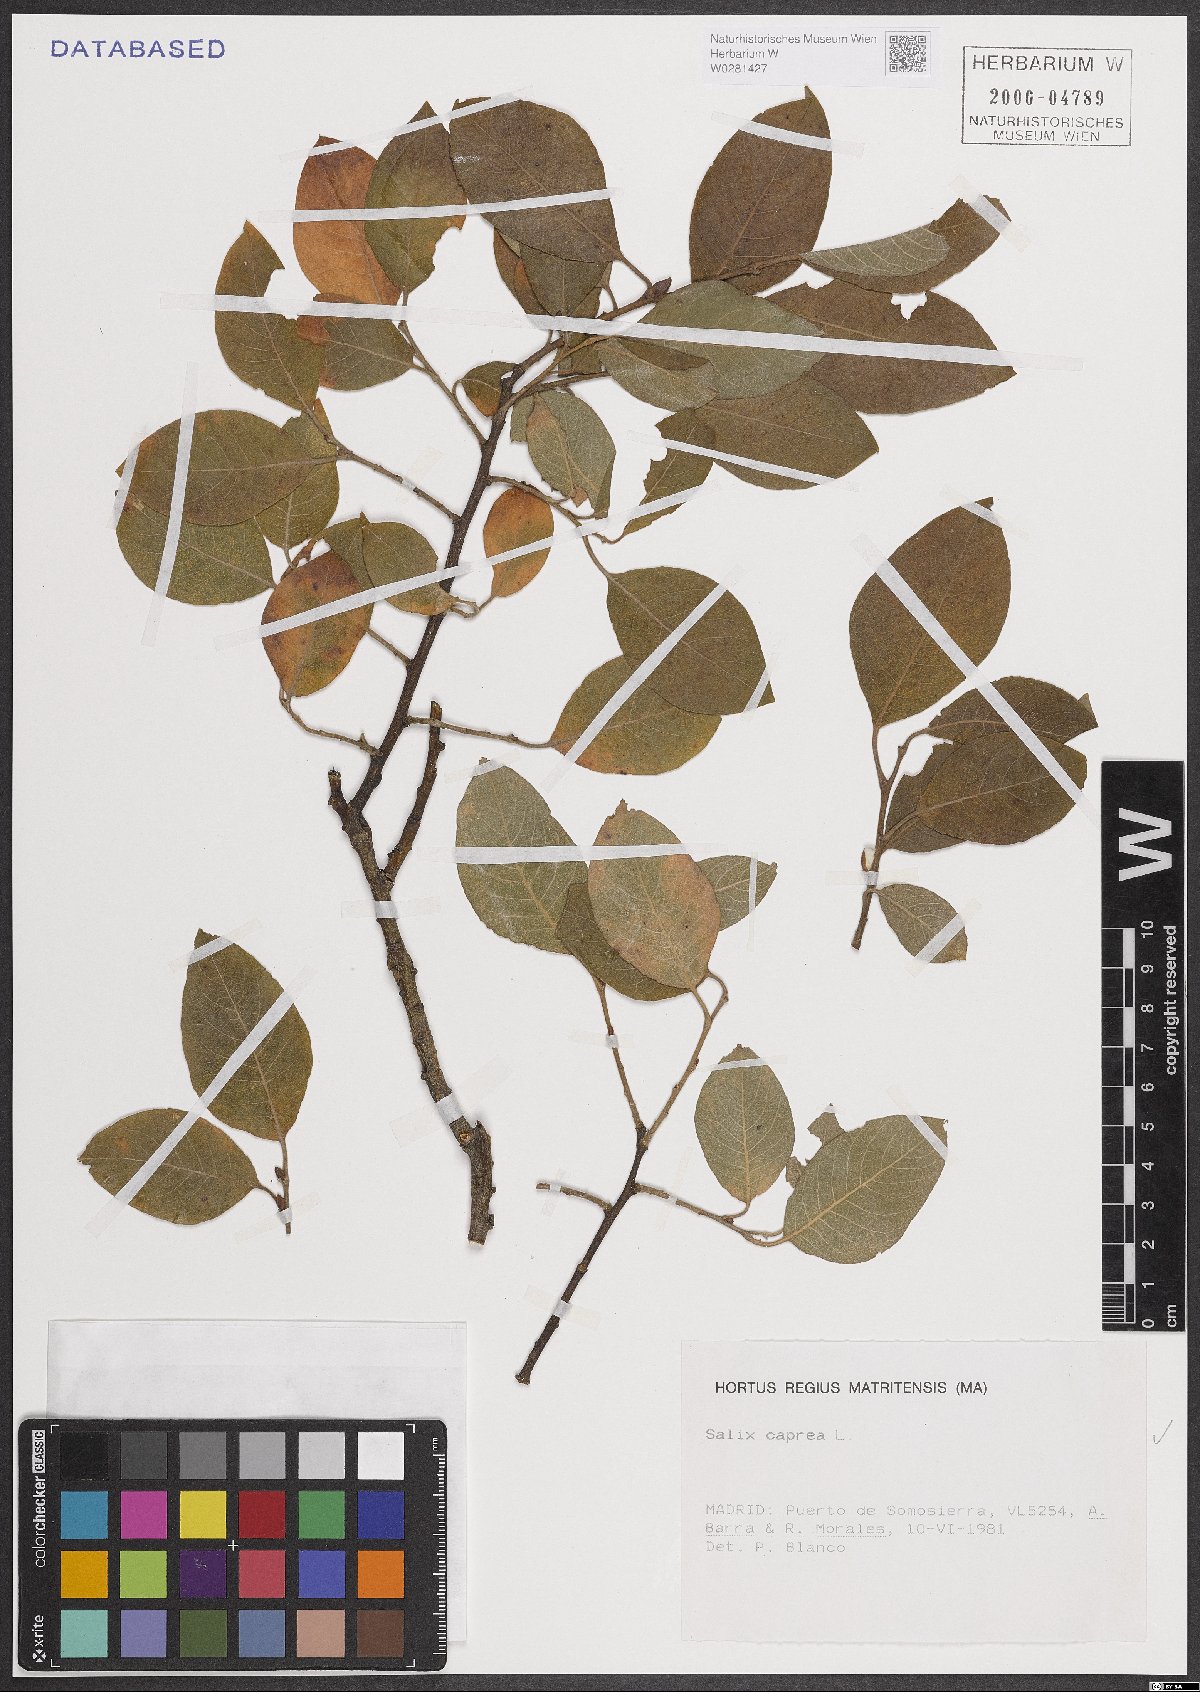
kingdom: Plantae
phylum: Tracheophyta
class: Magnoliopsida
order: Malpighiales
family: Salicaceae
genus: Salix
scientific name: Salix caprea
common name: Goat willow
